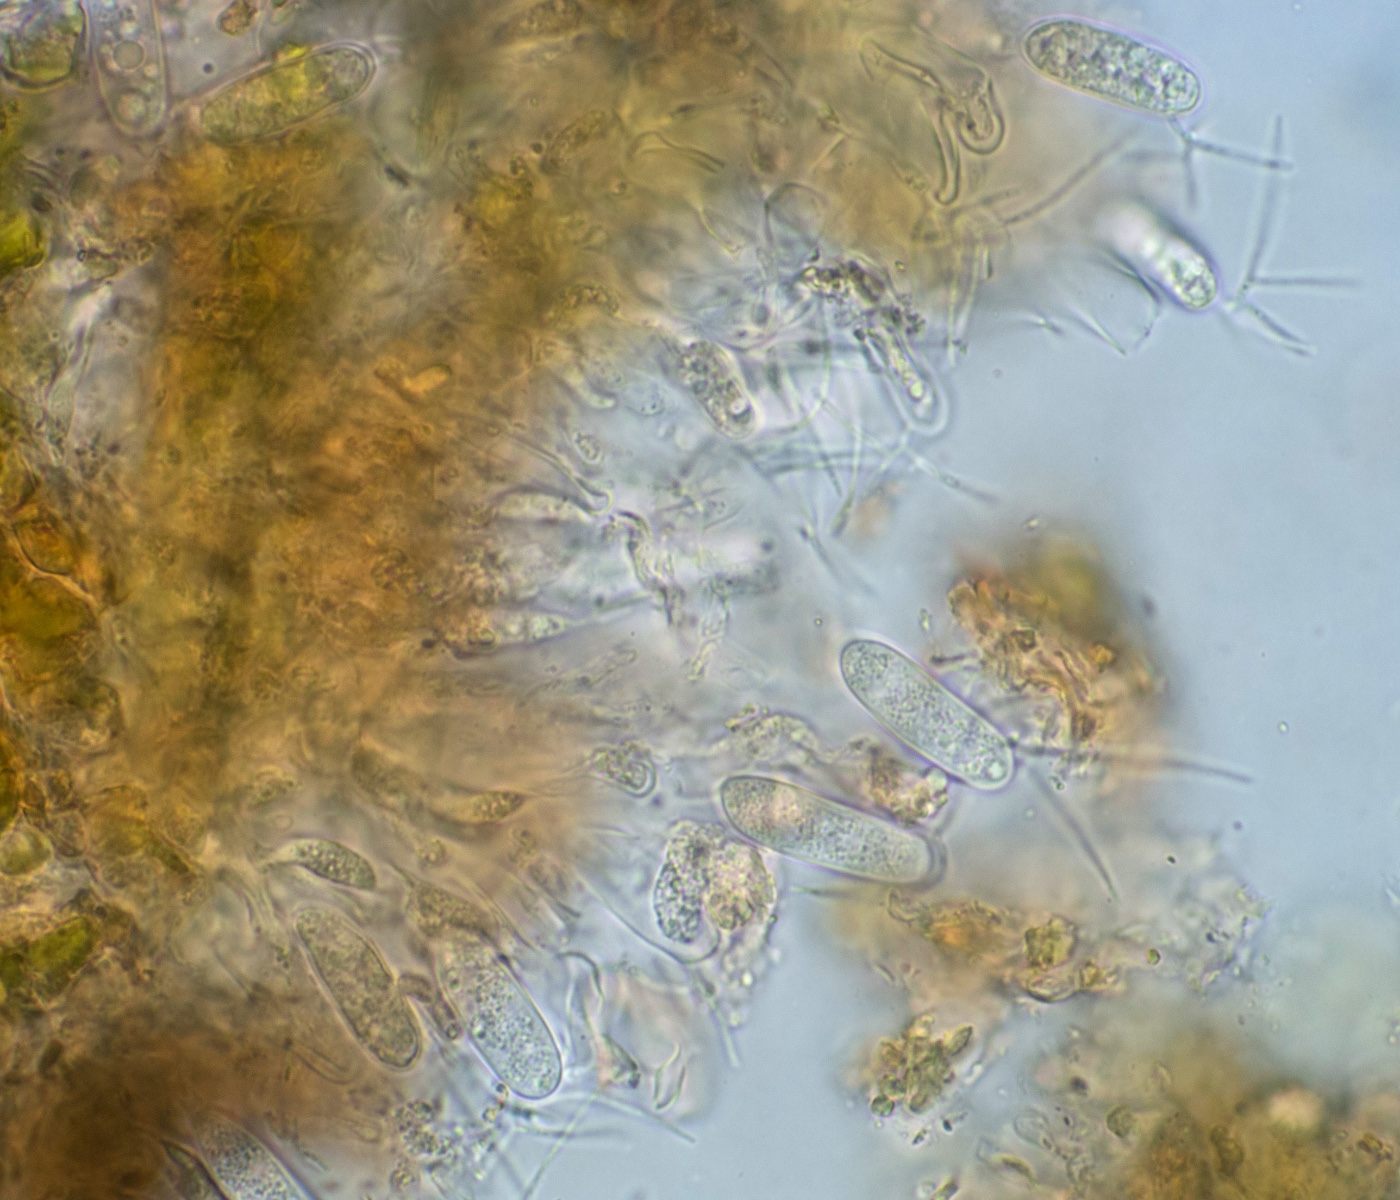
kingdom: Fungi
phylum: Ascomycota
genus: Pestalozziella
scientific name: Pestalozziella subsessilis
